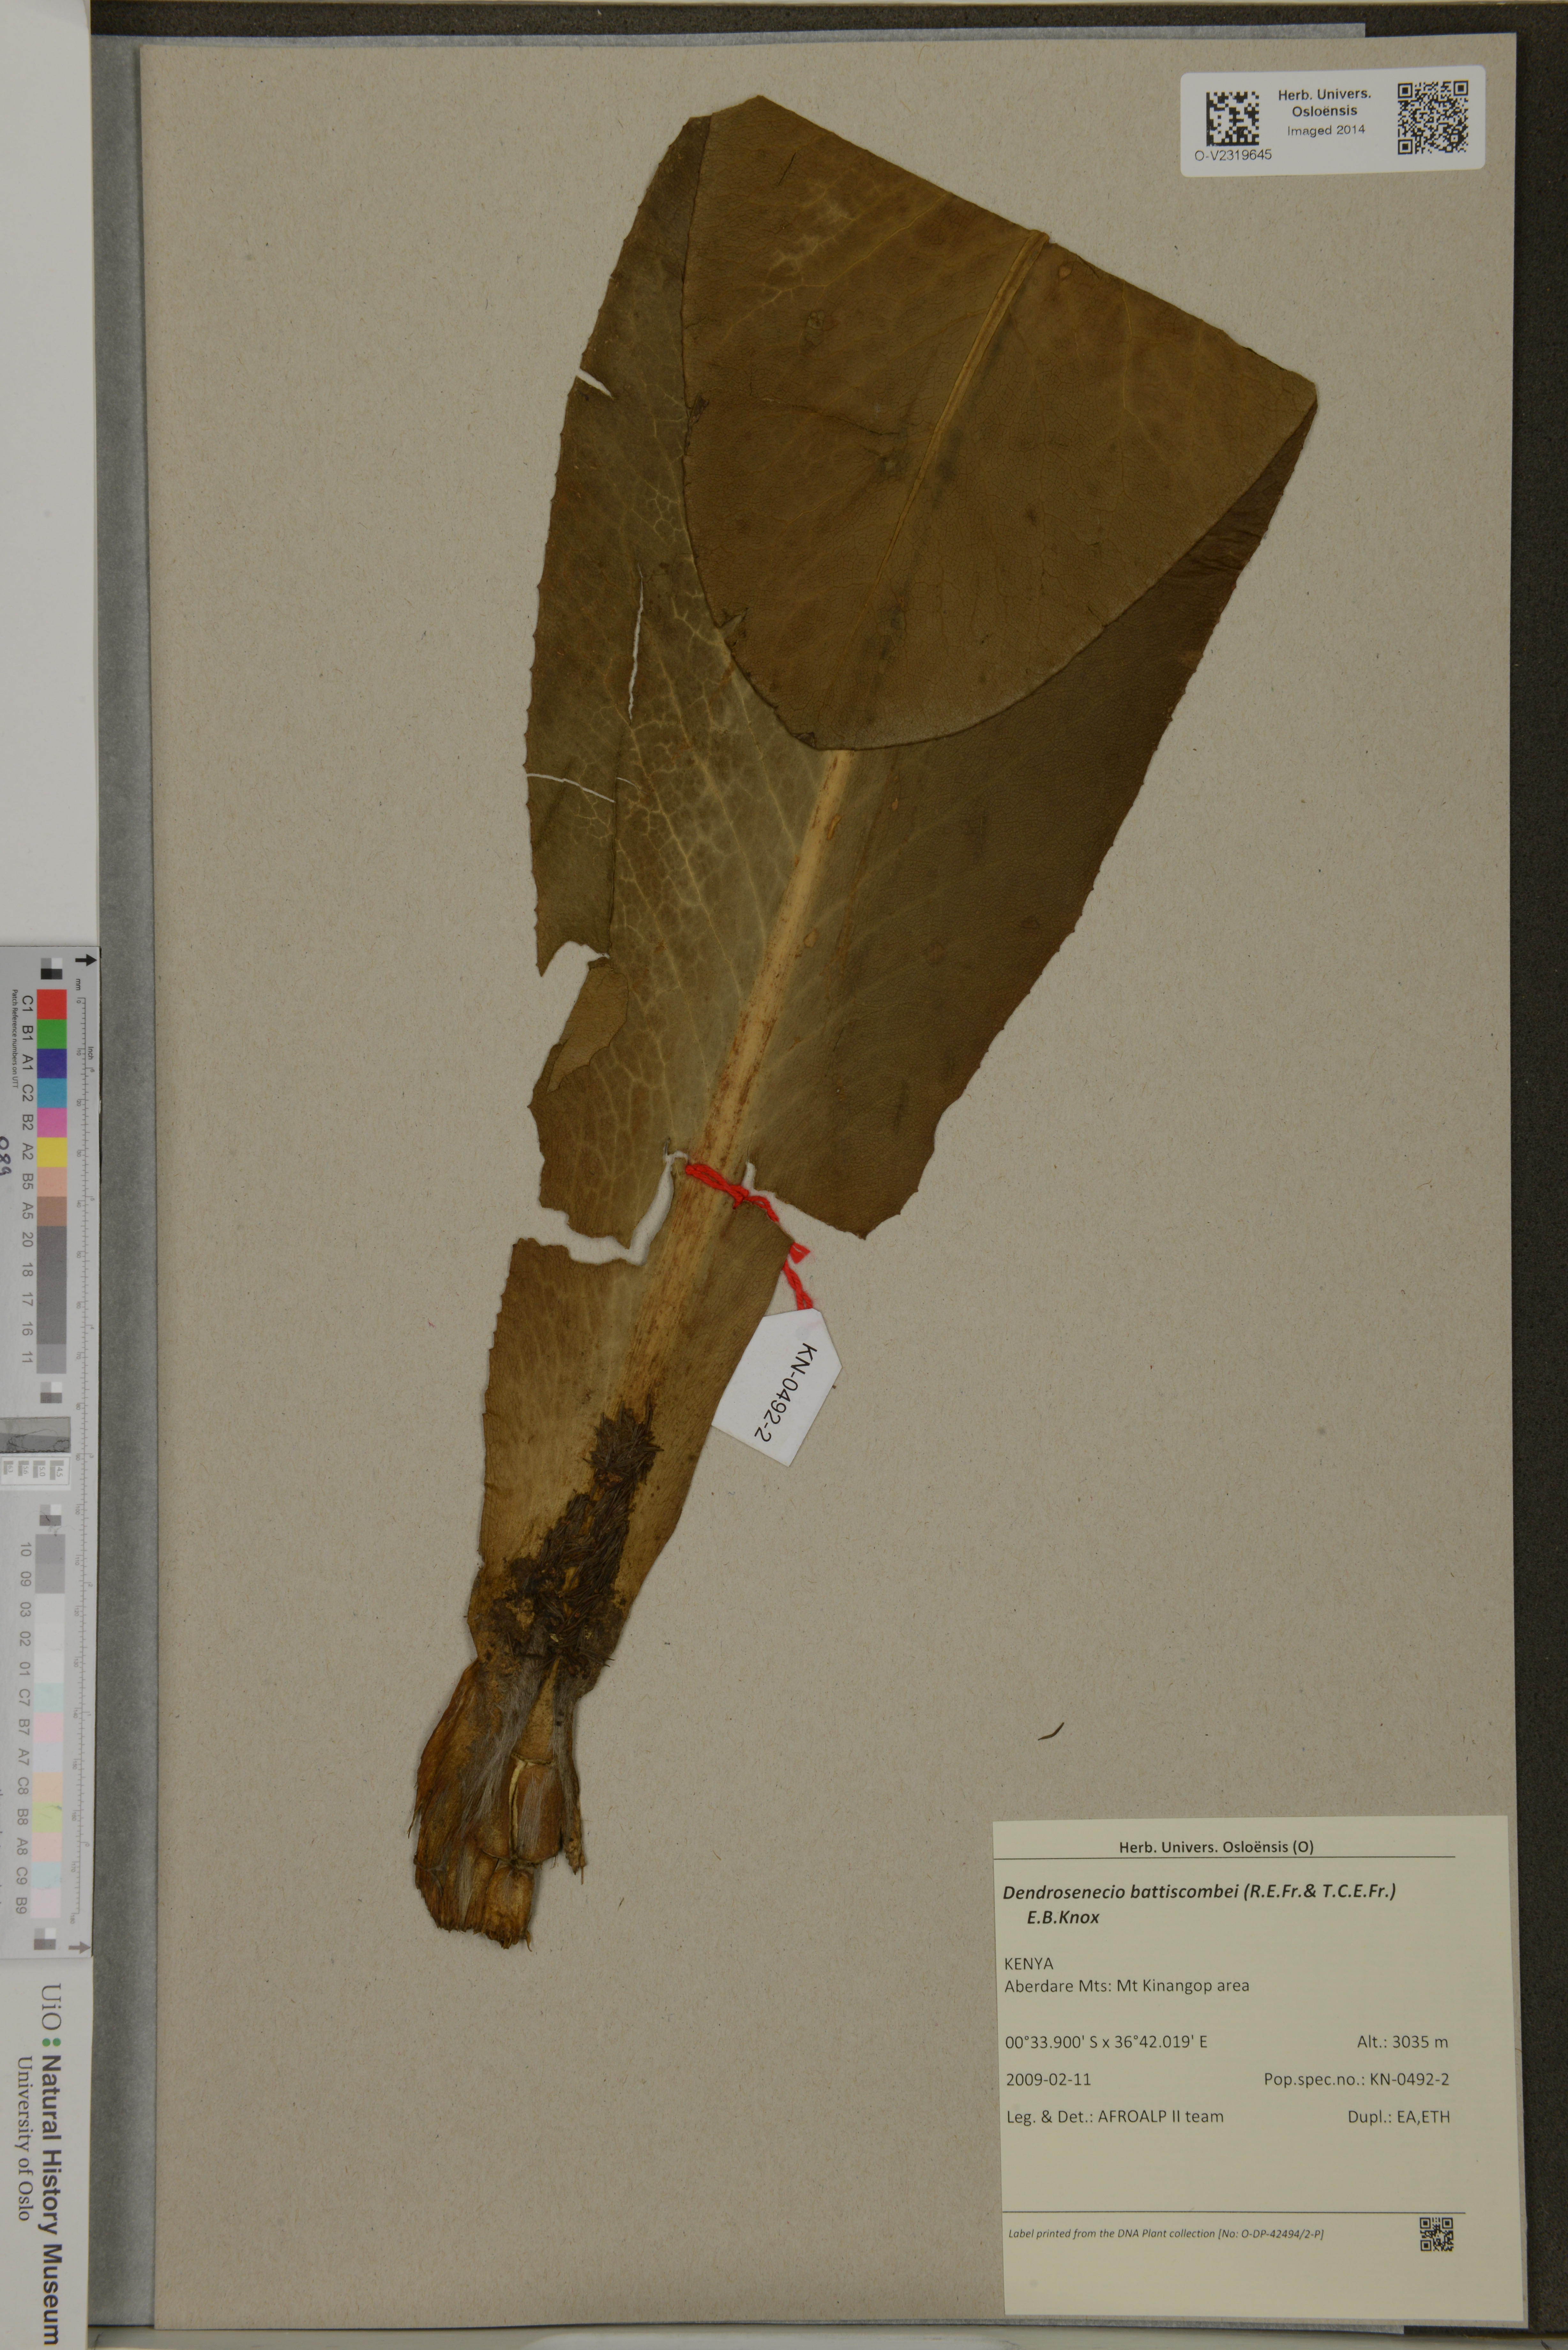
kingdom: Plantae
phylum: Tracheophyta
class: Magnoliopsida
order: Asterales
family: Asteraceae
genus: Dendrosenecio
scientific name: Dendrosenecio battiscombei
